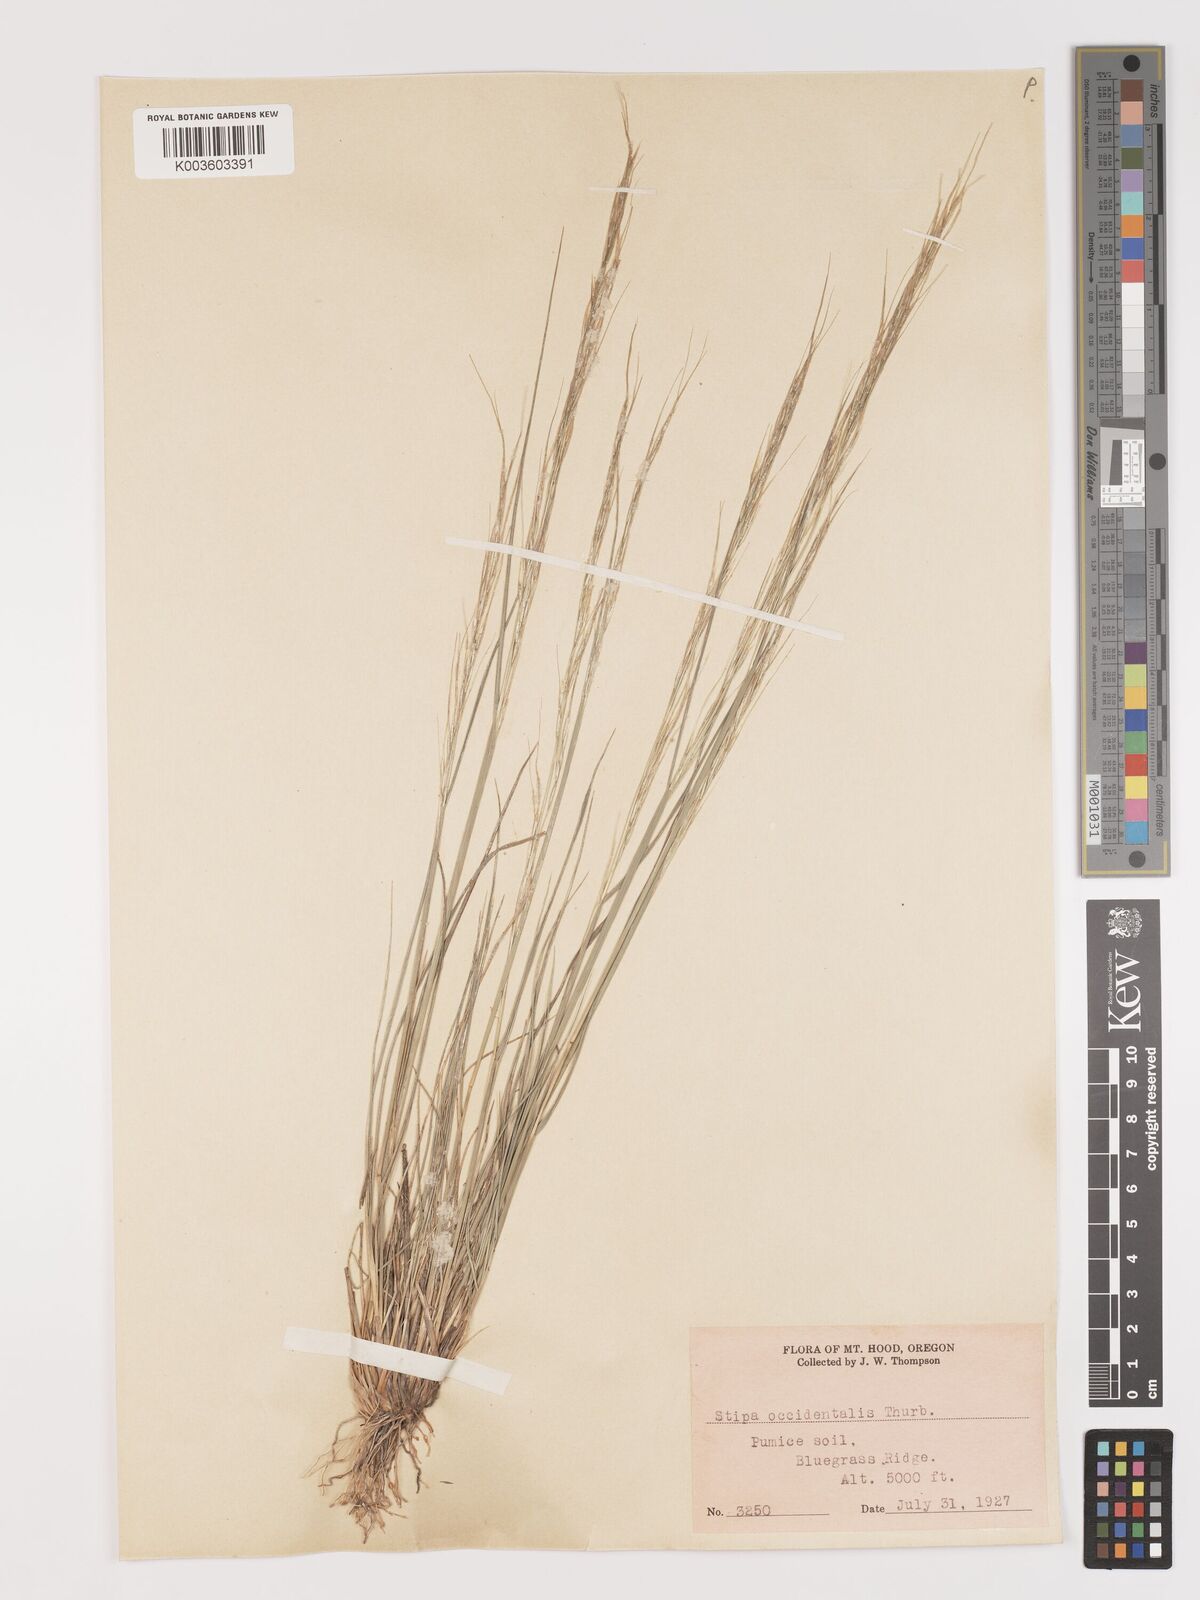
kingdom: Plantae
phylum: Tracheophyta
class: Liliopsida
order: Poales
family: Poaceae
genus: Eriocoma
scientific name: Eriocoma thurberiana
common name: Thurber's needlegrass
